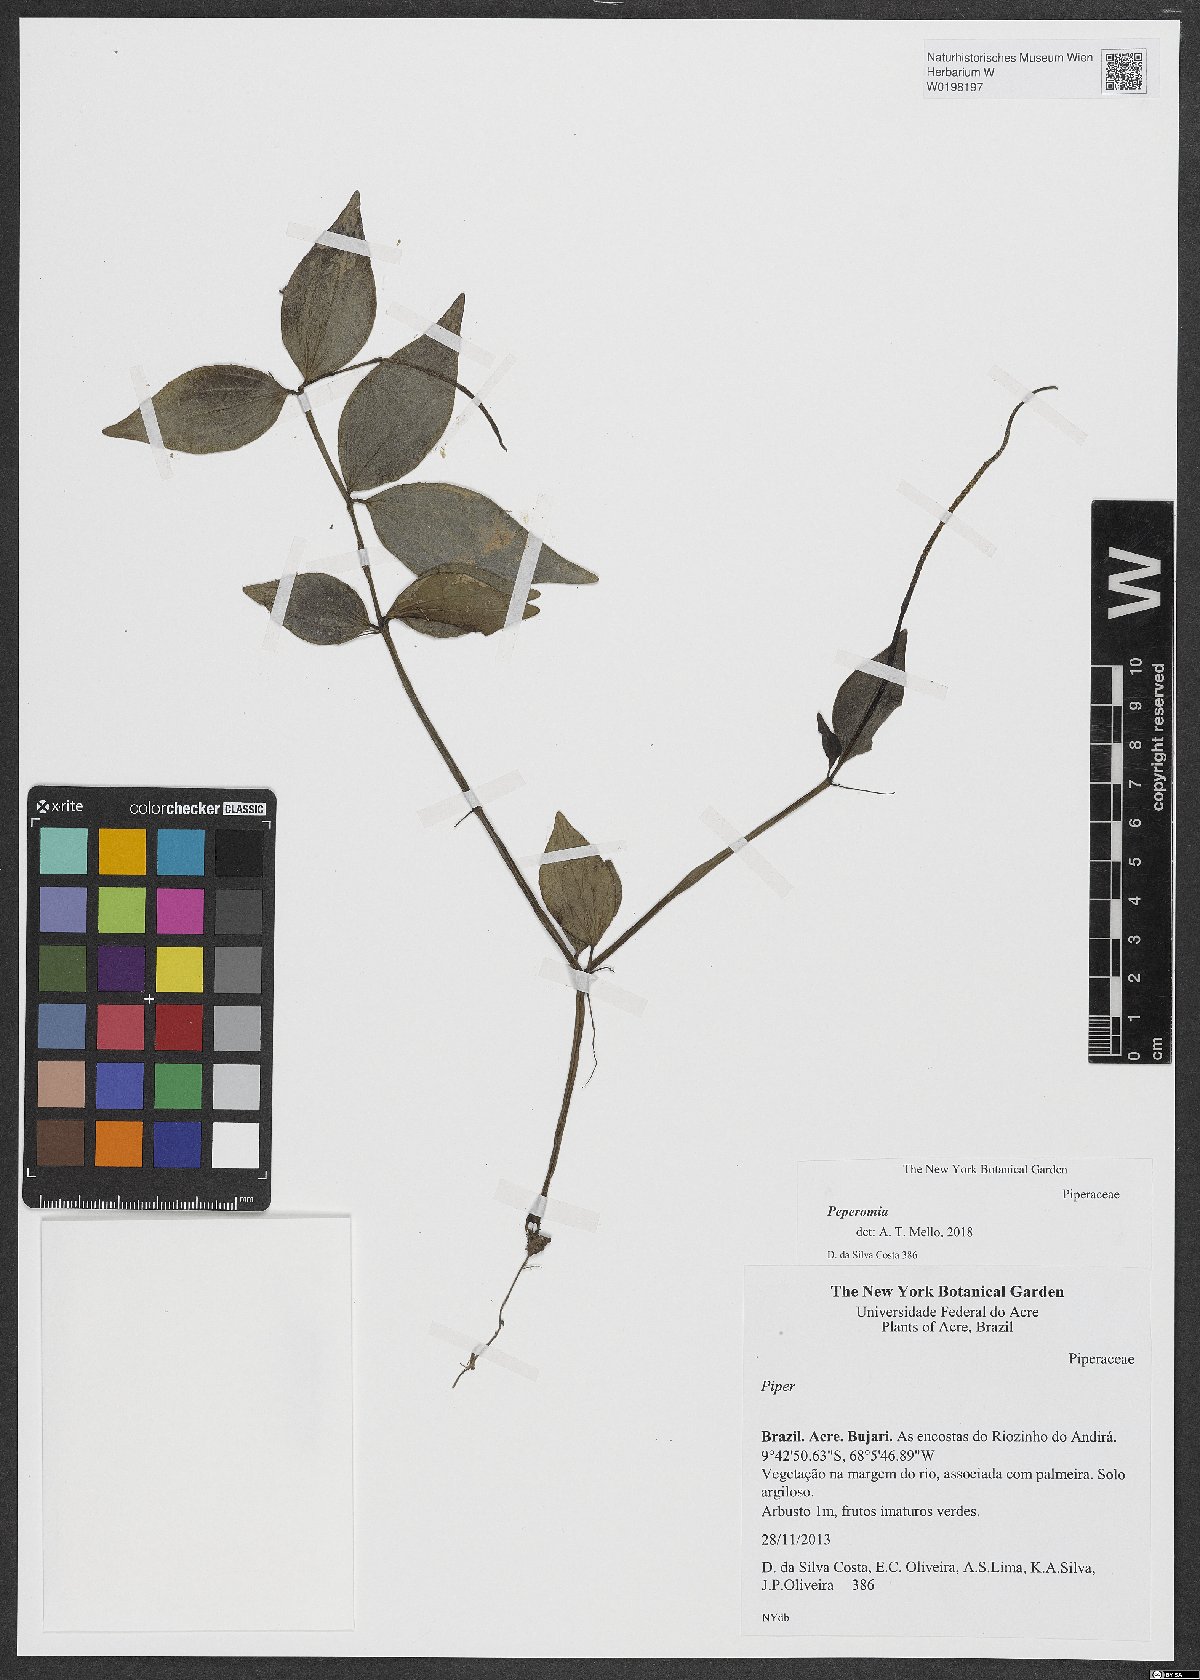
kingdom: Plantae
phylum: Tracheophyta
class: Magnoliopsida
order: Piperales
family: Piperaceae
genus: Peperomia
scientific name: Peperomia
